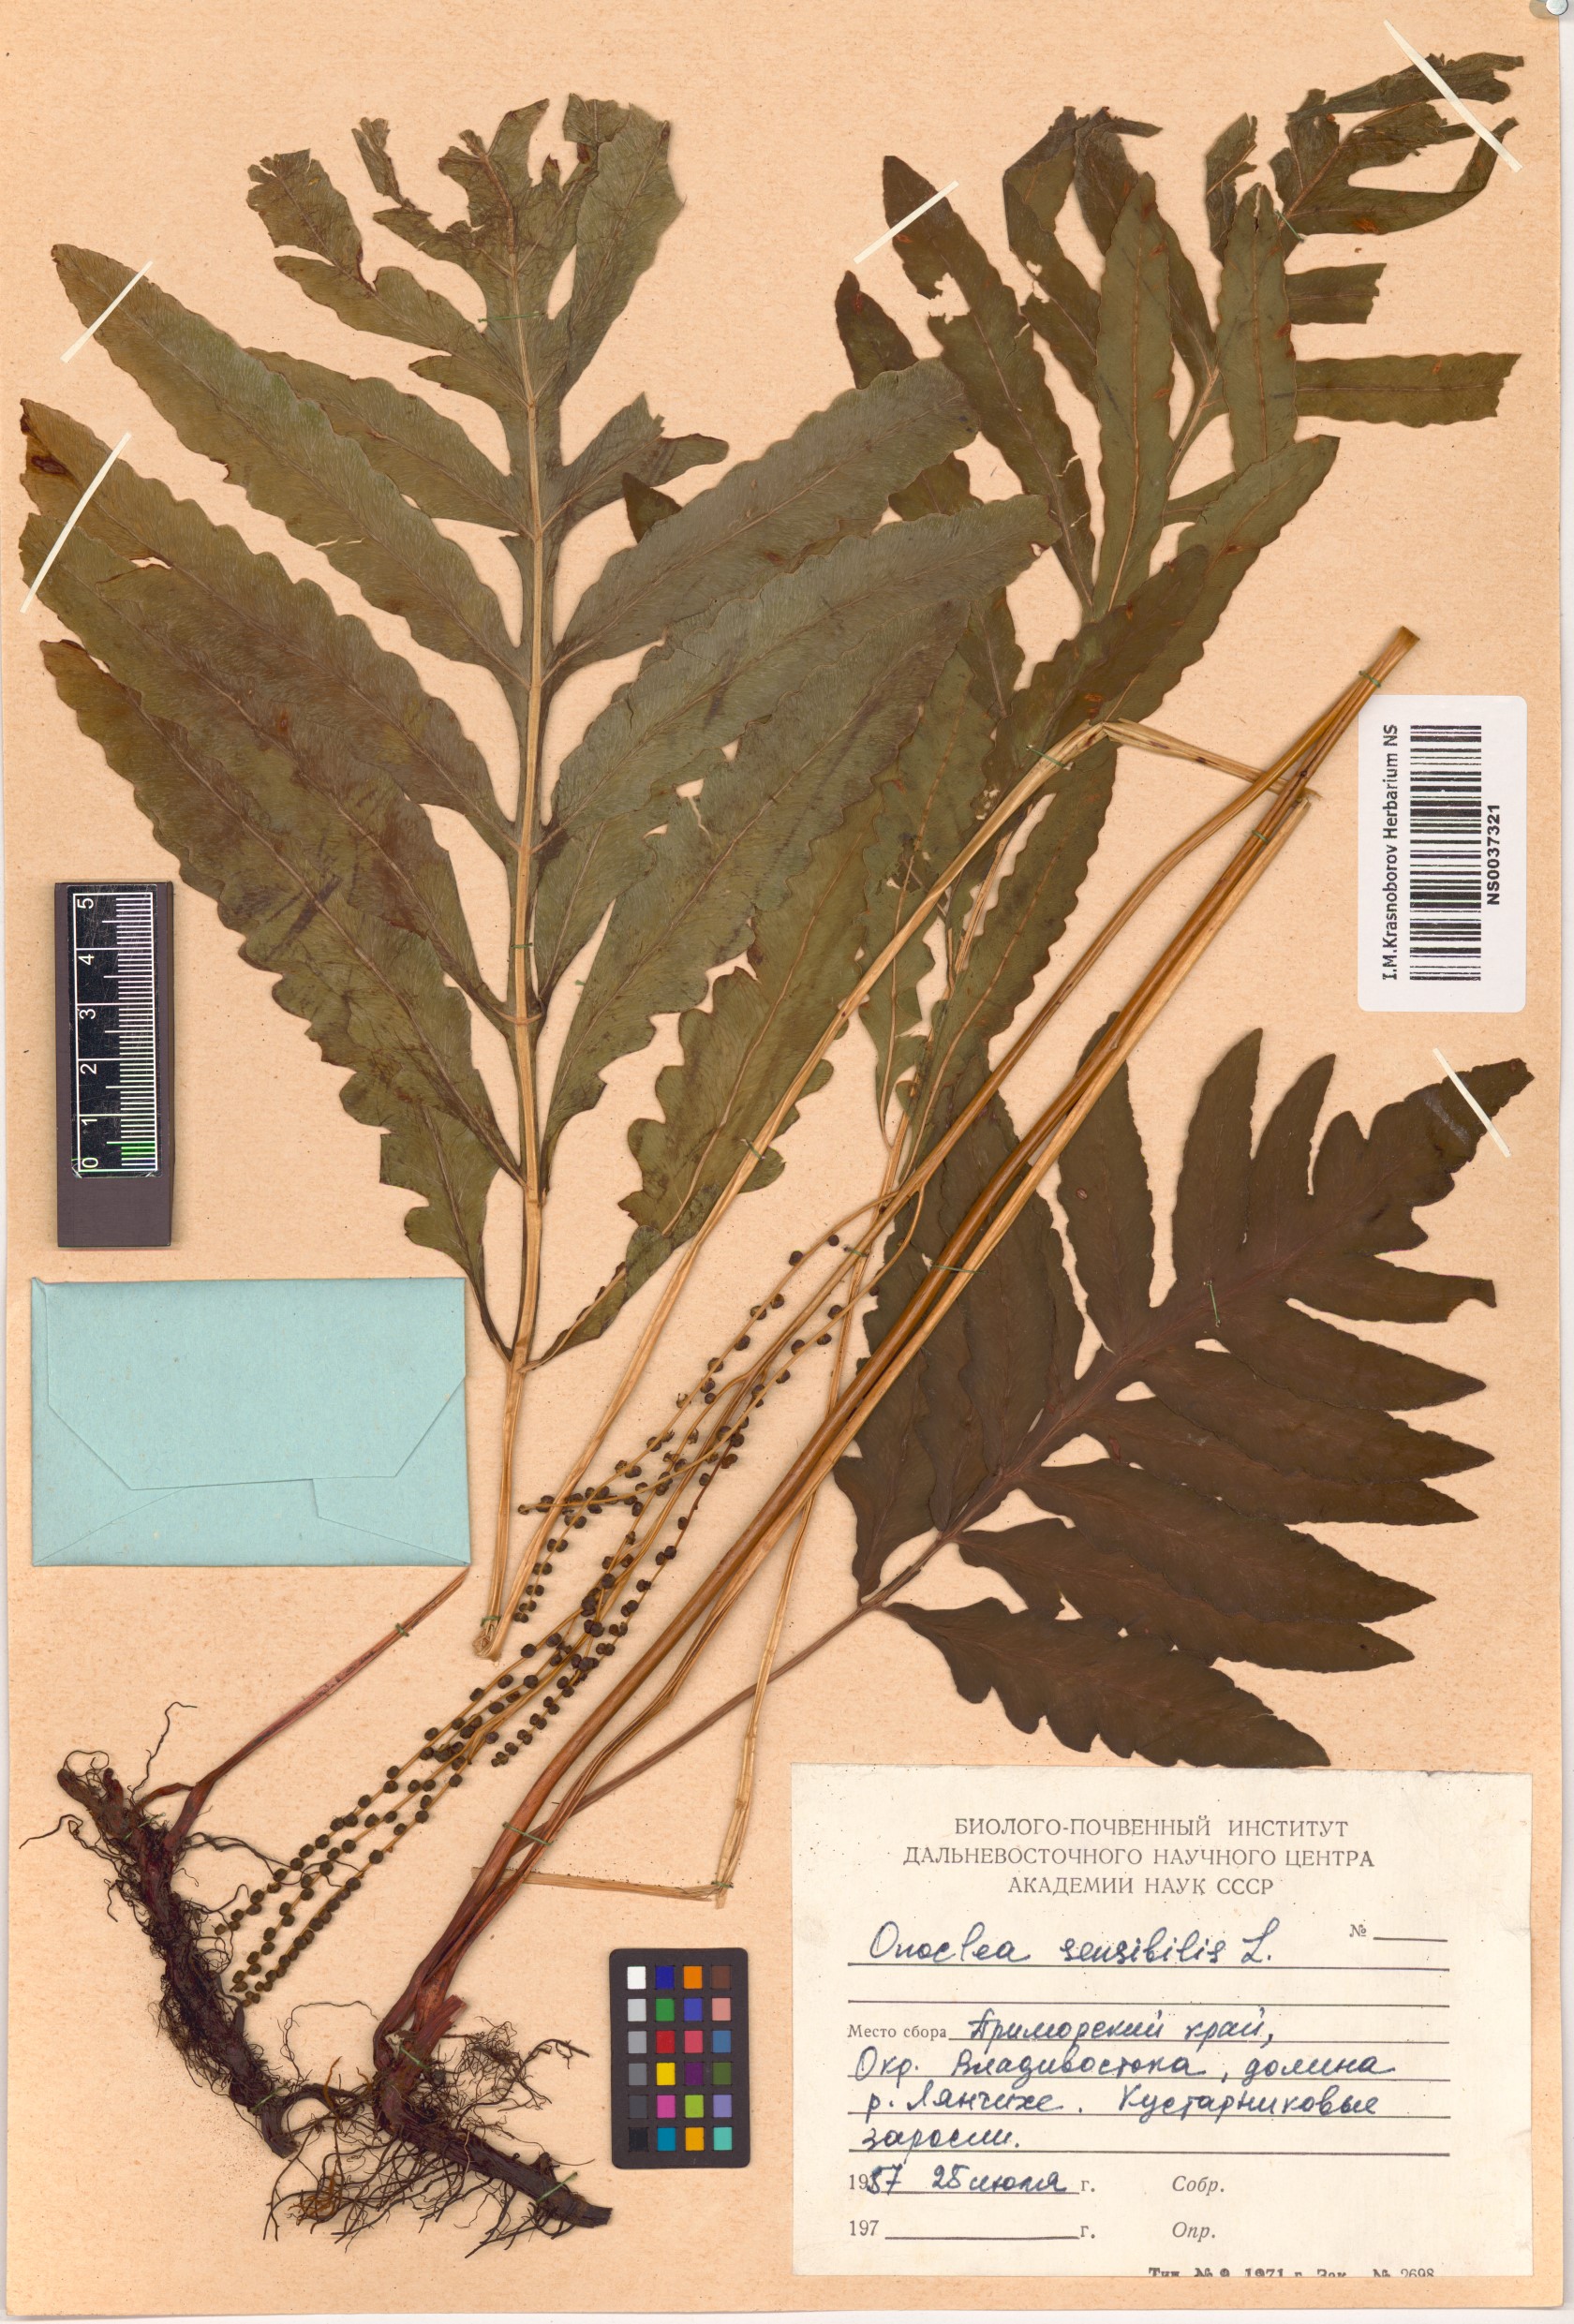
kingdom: Plantae
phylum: Tracheophyta
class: Polypodiopsida
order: Polypodiales
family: Onocleaceae
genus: Onoclea
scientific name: Onoclea sensibilis
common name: Sensitive fern
